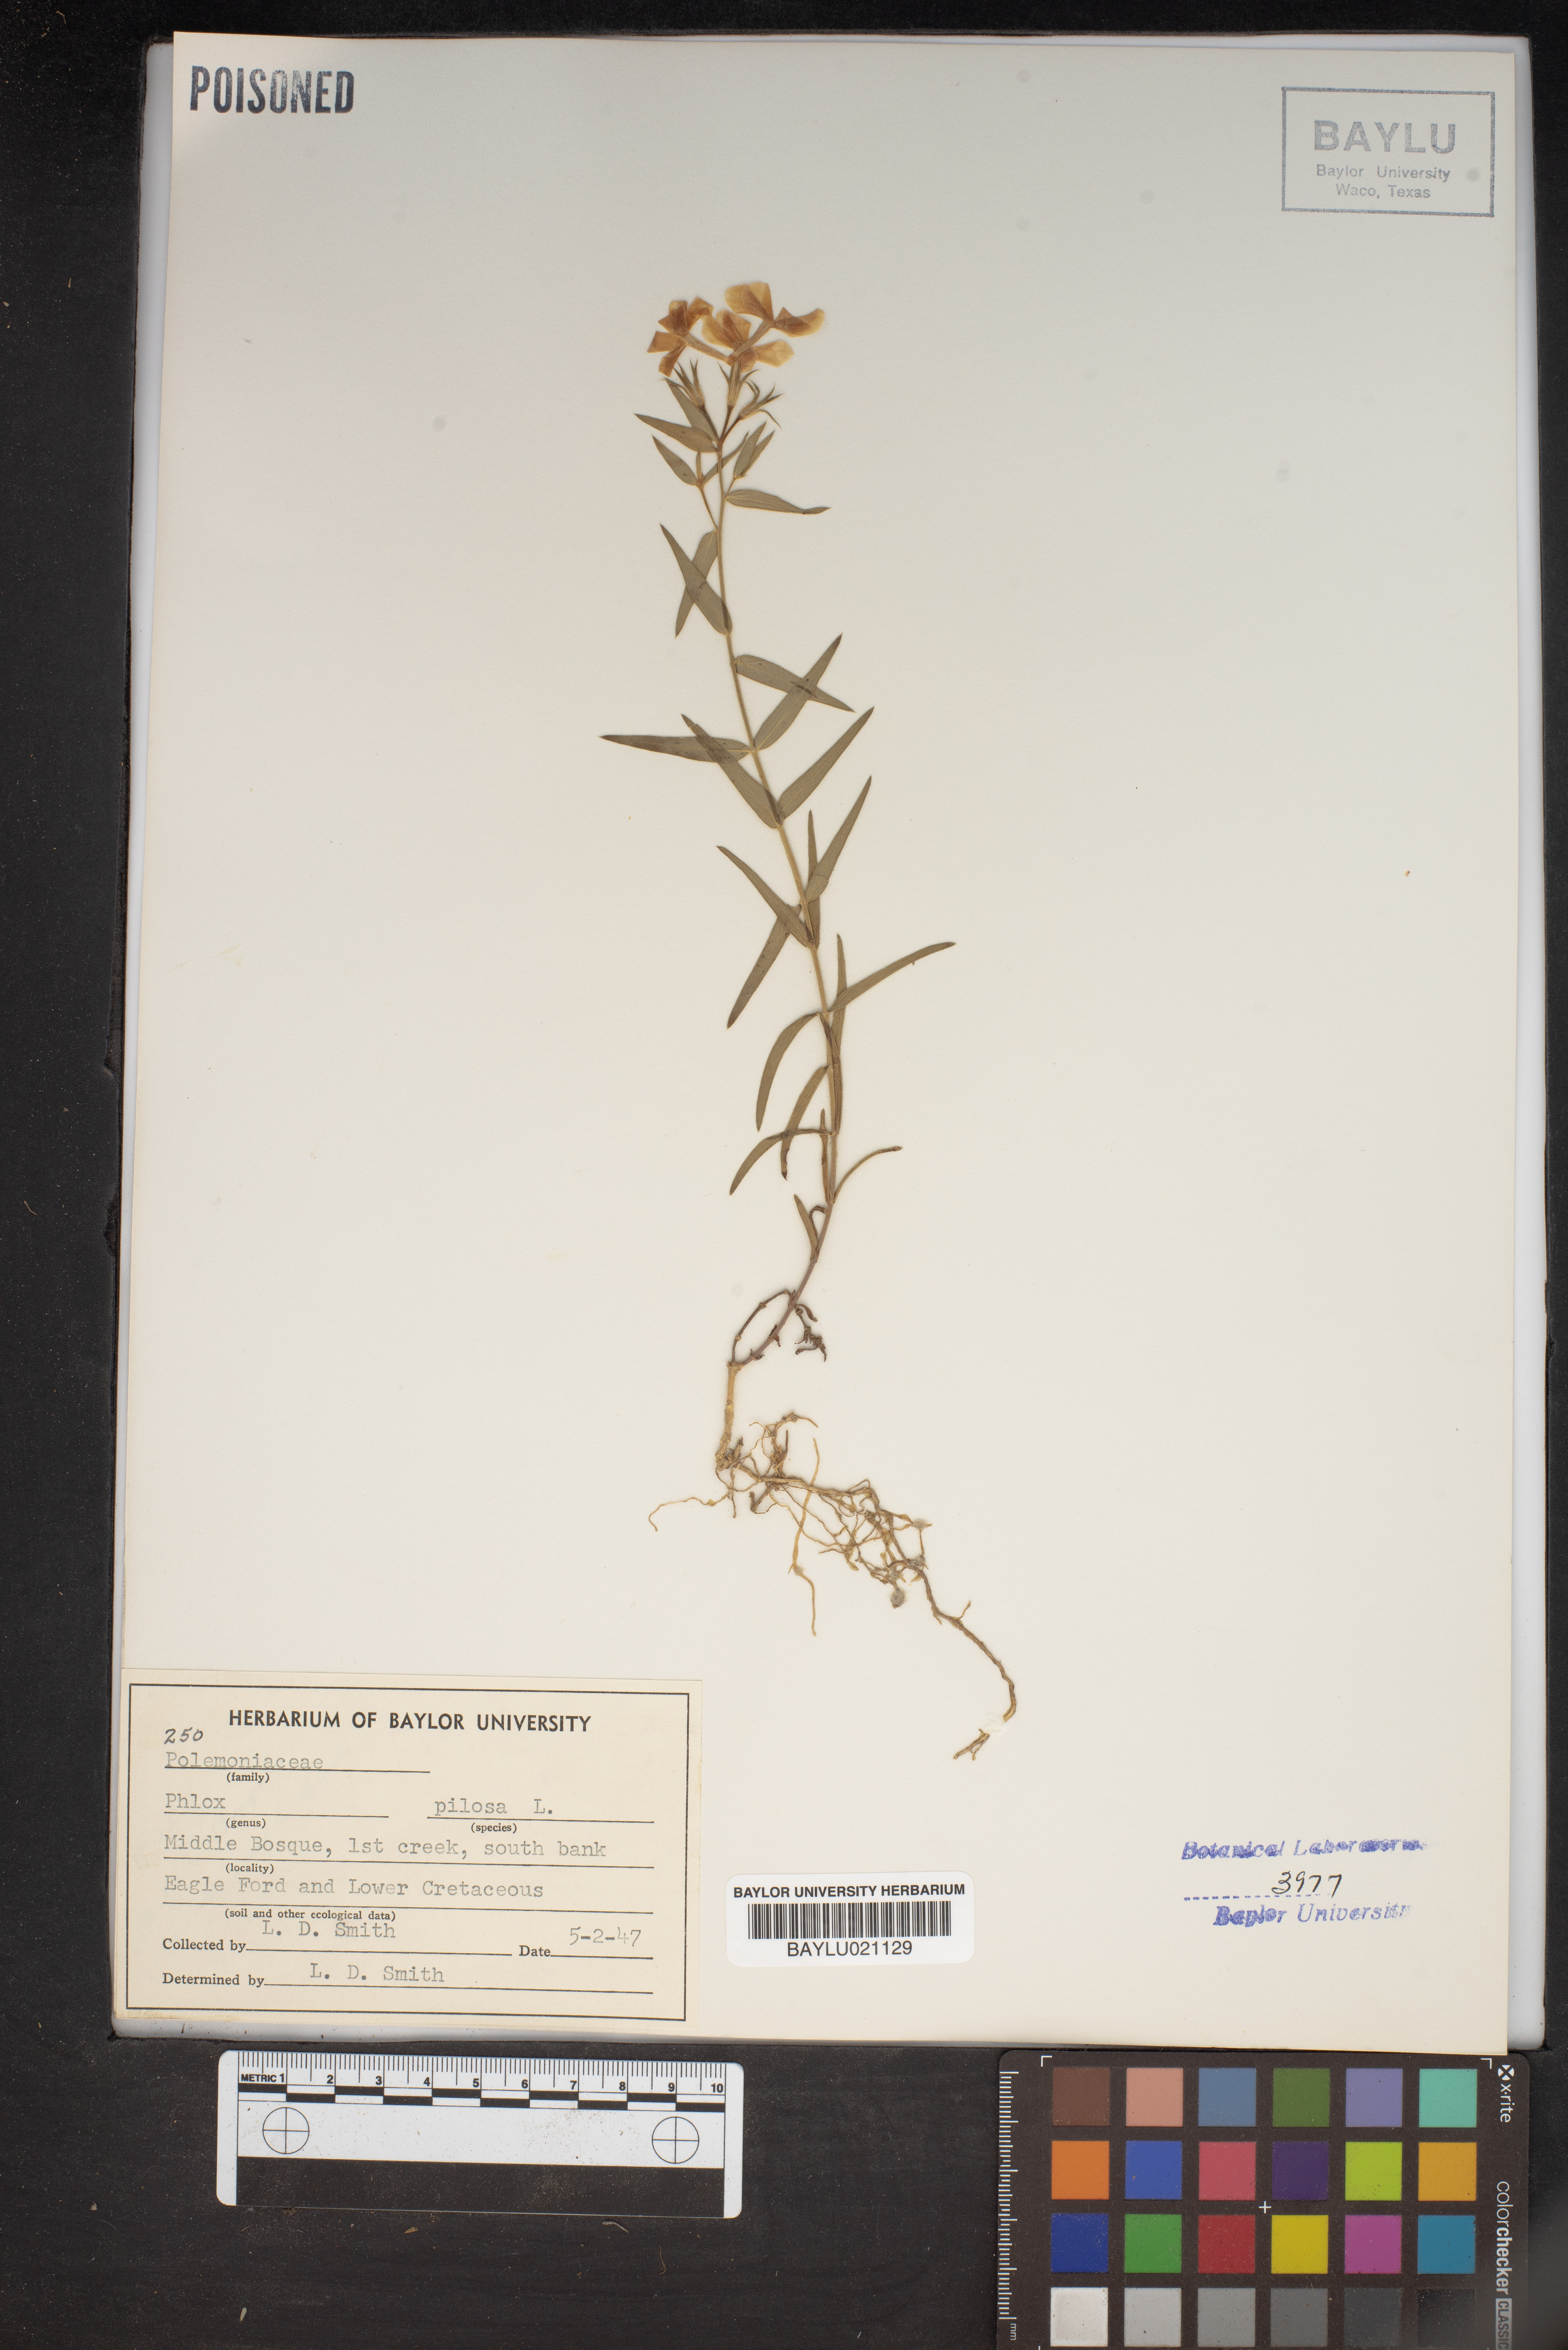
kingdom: Plantae
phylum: Tracheophyta
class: Magnoliopsida
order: Ericales
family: Polemoniaceae
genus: Phlox
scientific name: Phlox pilosa
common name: Prairie phlox
